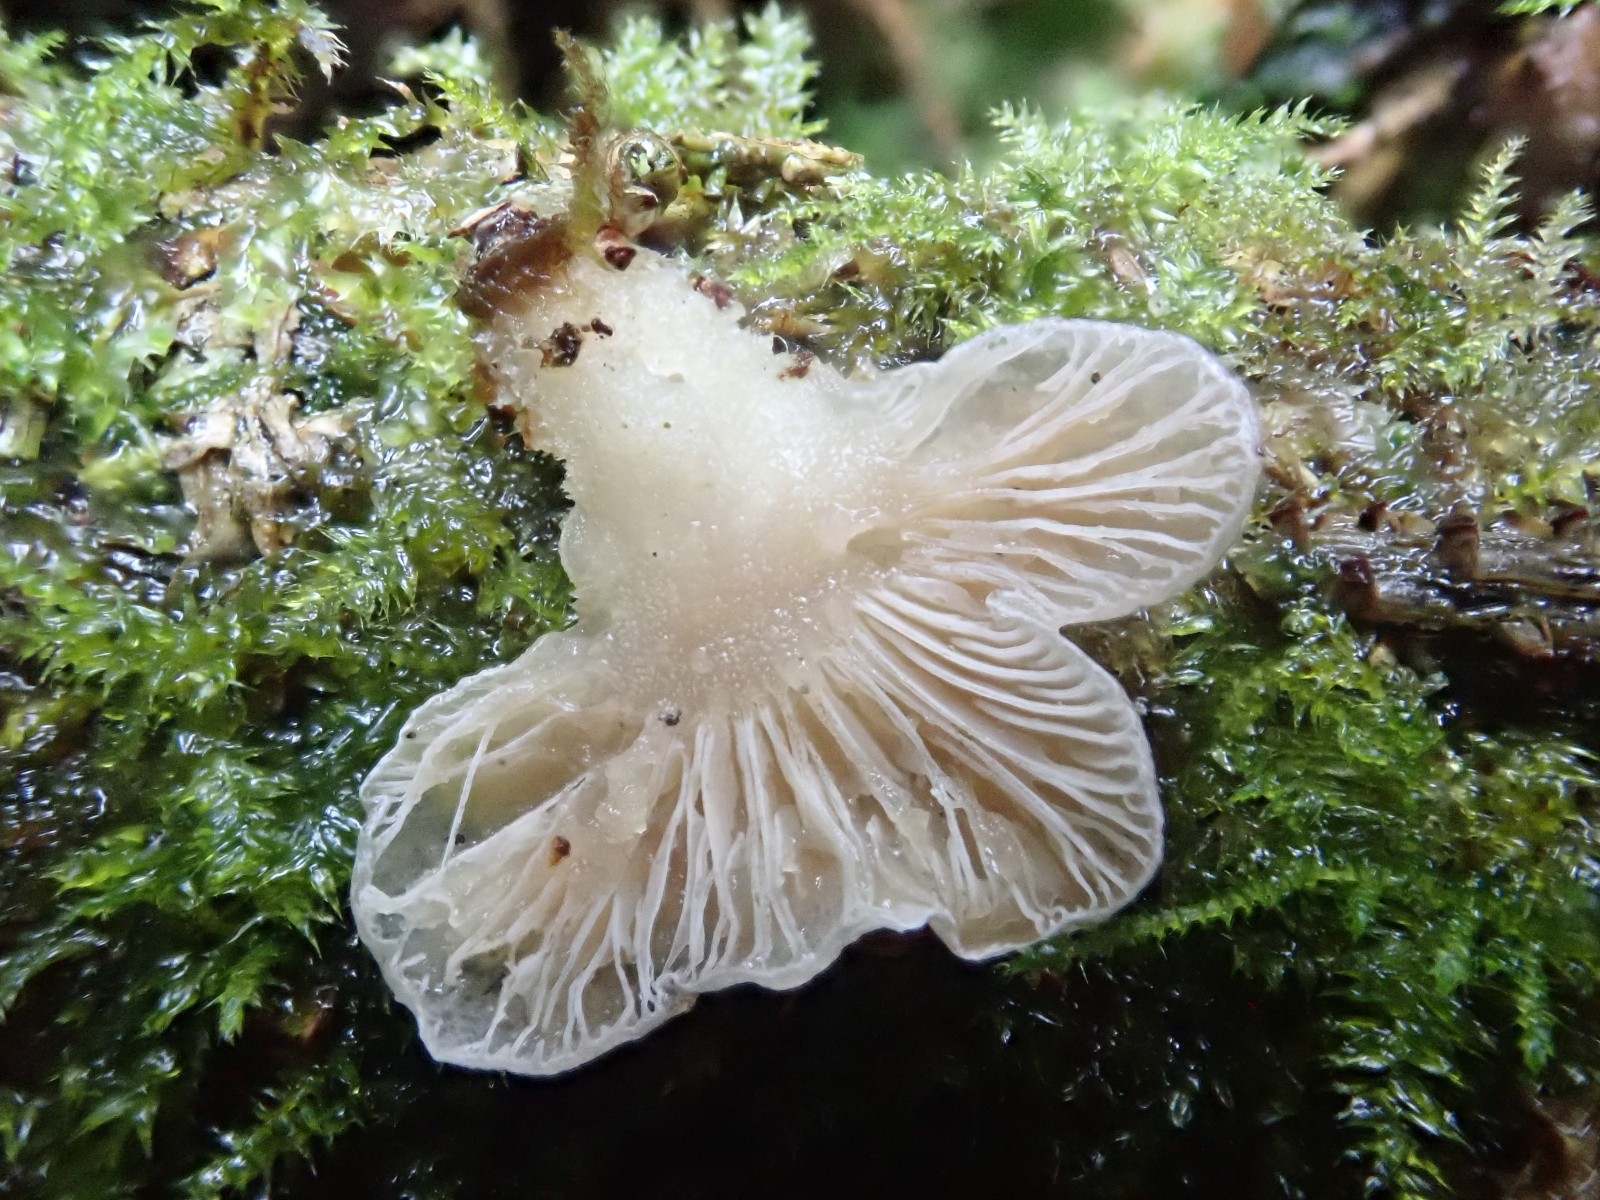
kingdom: Fungi
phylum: Basidiomycota
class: Agaricomycetes
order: Agaricales
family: Mycenaceae
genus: Panellus
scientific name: Panellus mitis
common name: mild epaulethat
